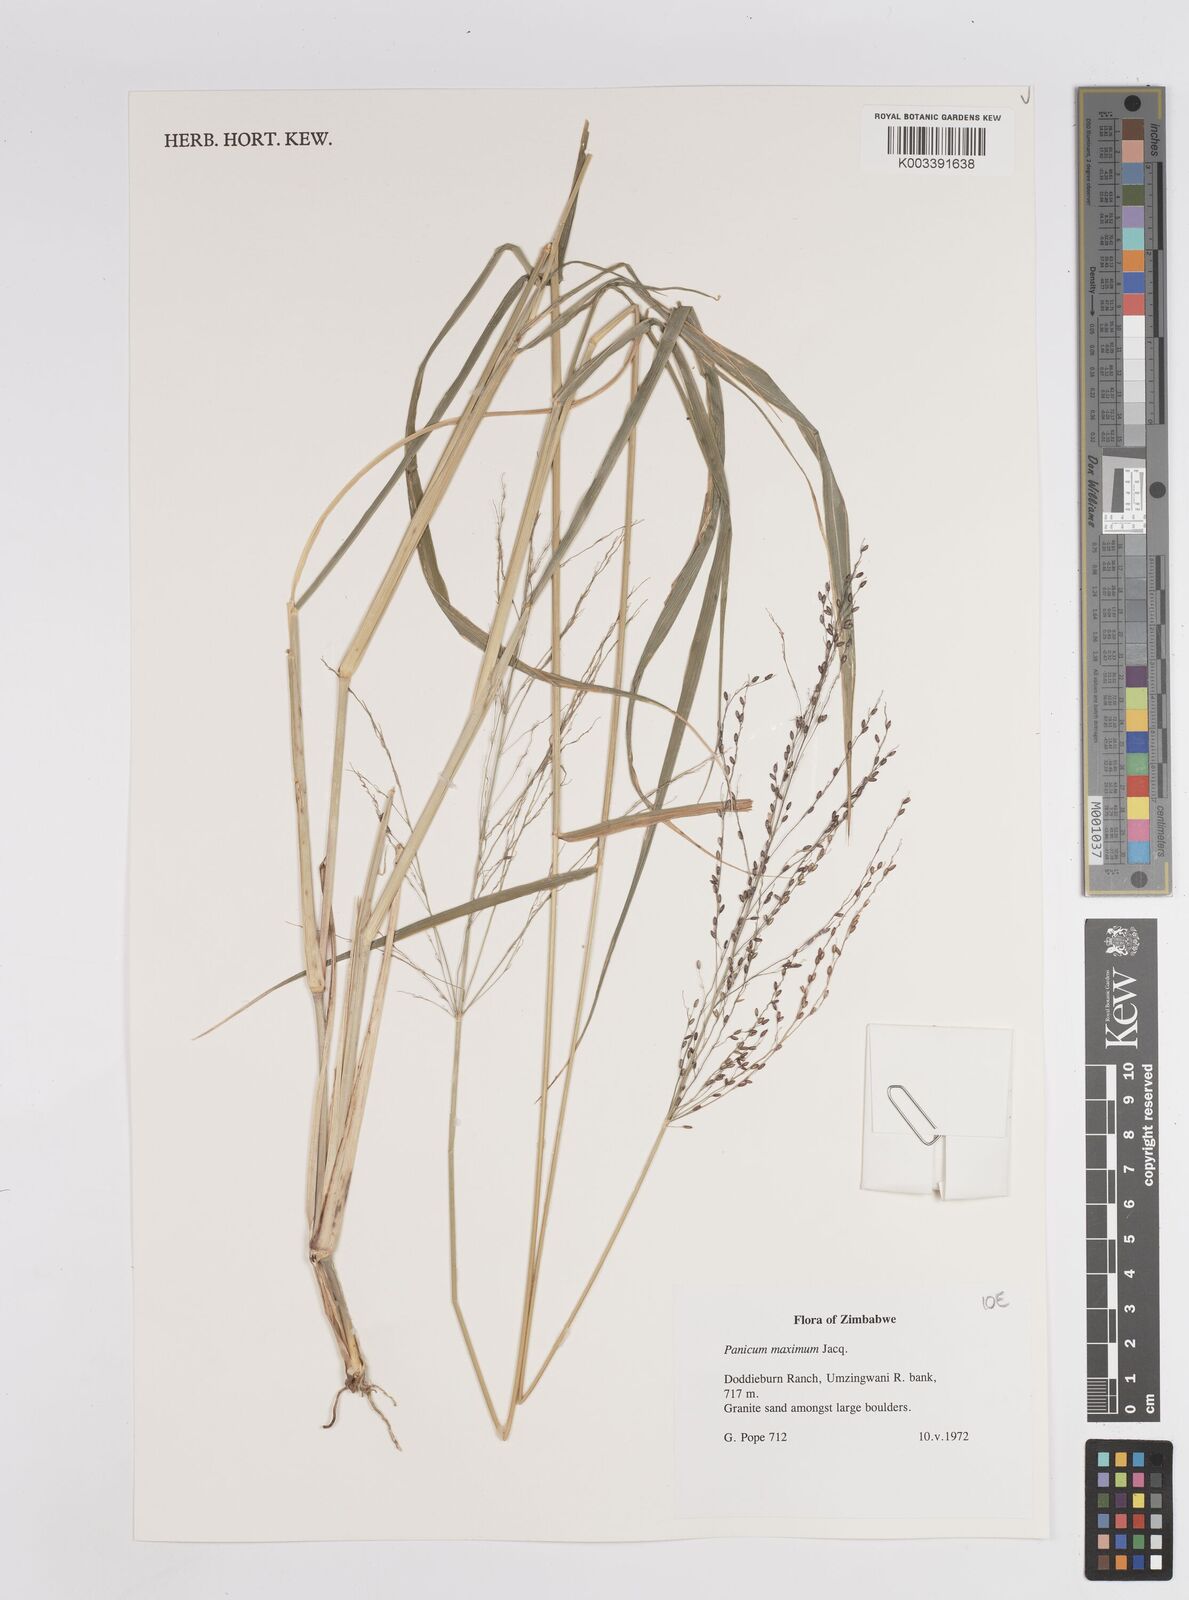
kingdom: Plantae
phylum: Tracheophyta
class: Liliopsida
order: Poales
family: Poaceae
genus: Megathyrsus
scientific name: Megathyrsus maximus
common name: Guineagrass
